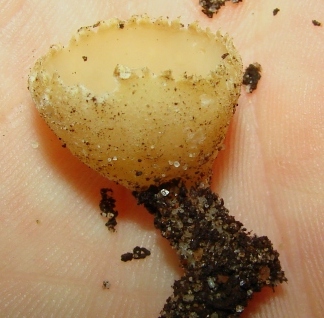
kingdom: Fungi
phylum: Ascomycota
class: Pezizomycetes
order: Pezizales
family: Pyronemataceae
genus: Tarzetta
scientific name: Tarzetta cupularis
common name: gulbrun pokalbæger
